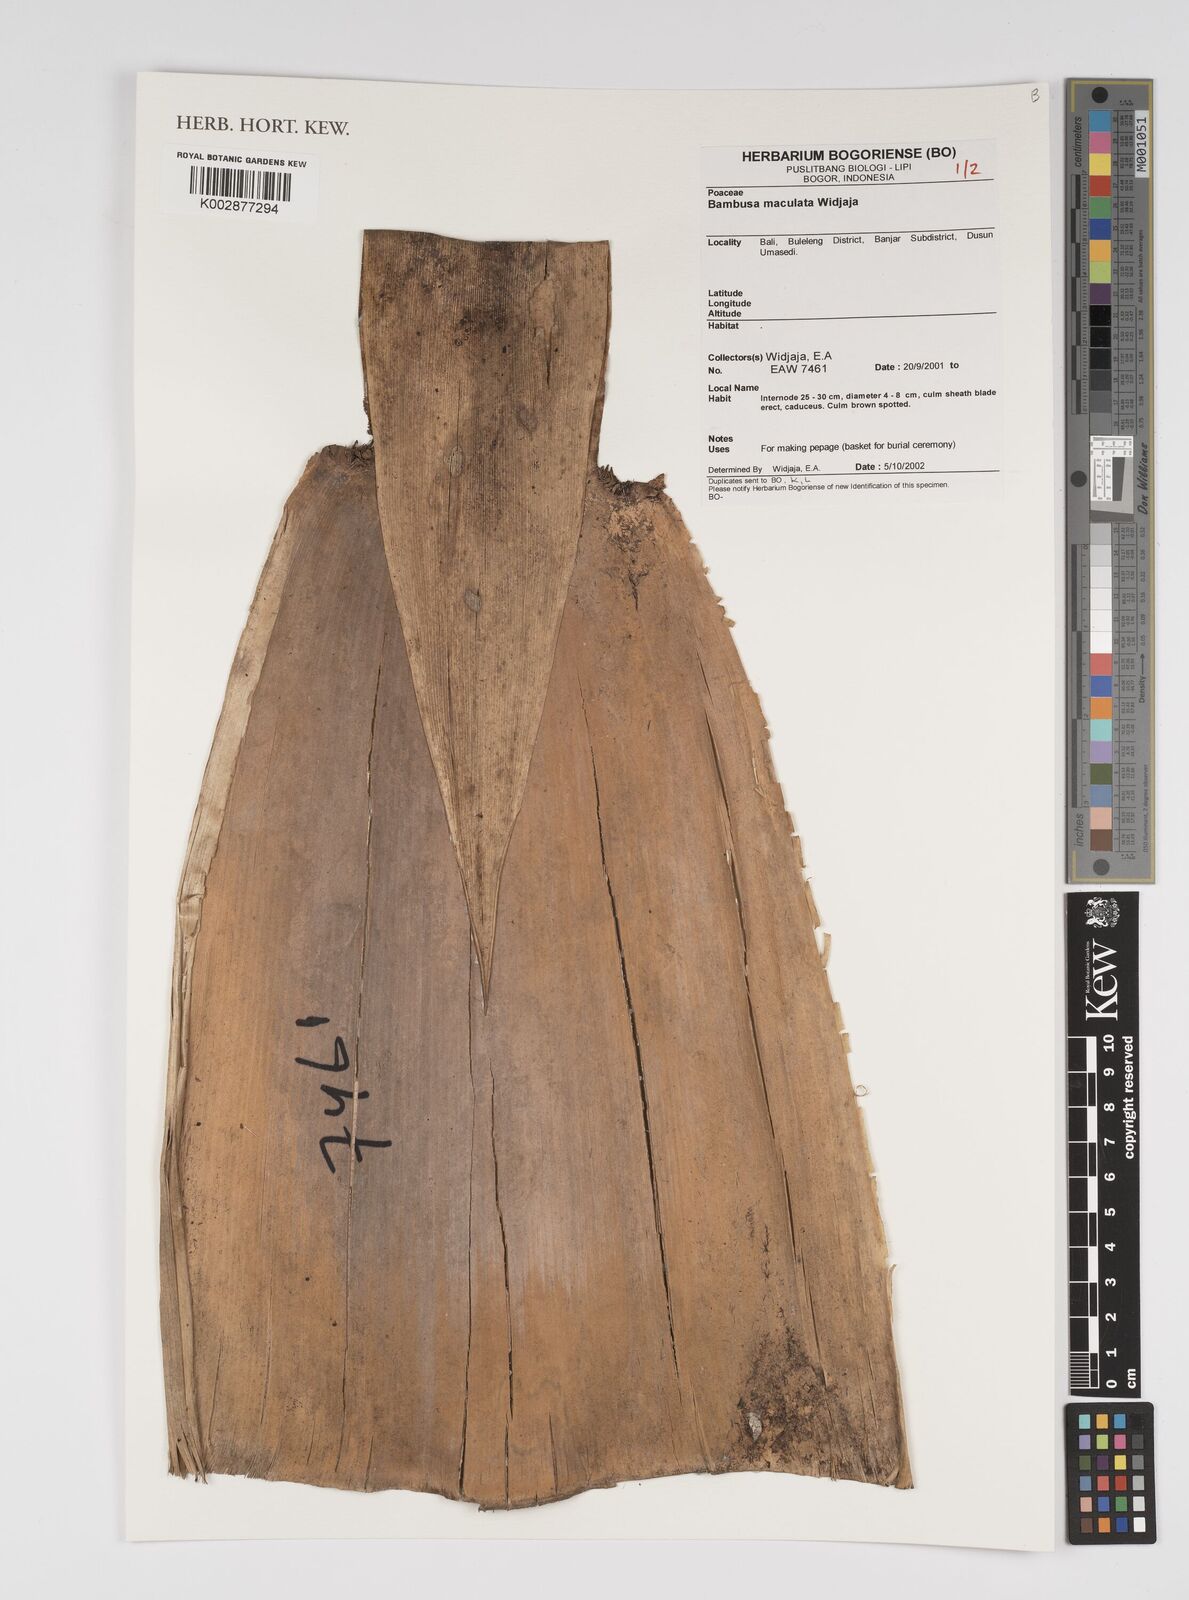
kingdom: Plantae
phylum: Tracheophyta
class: Liliopsida
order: Poales
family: Poaceae
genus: Bambusa
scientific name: Bambusa maculata
